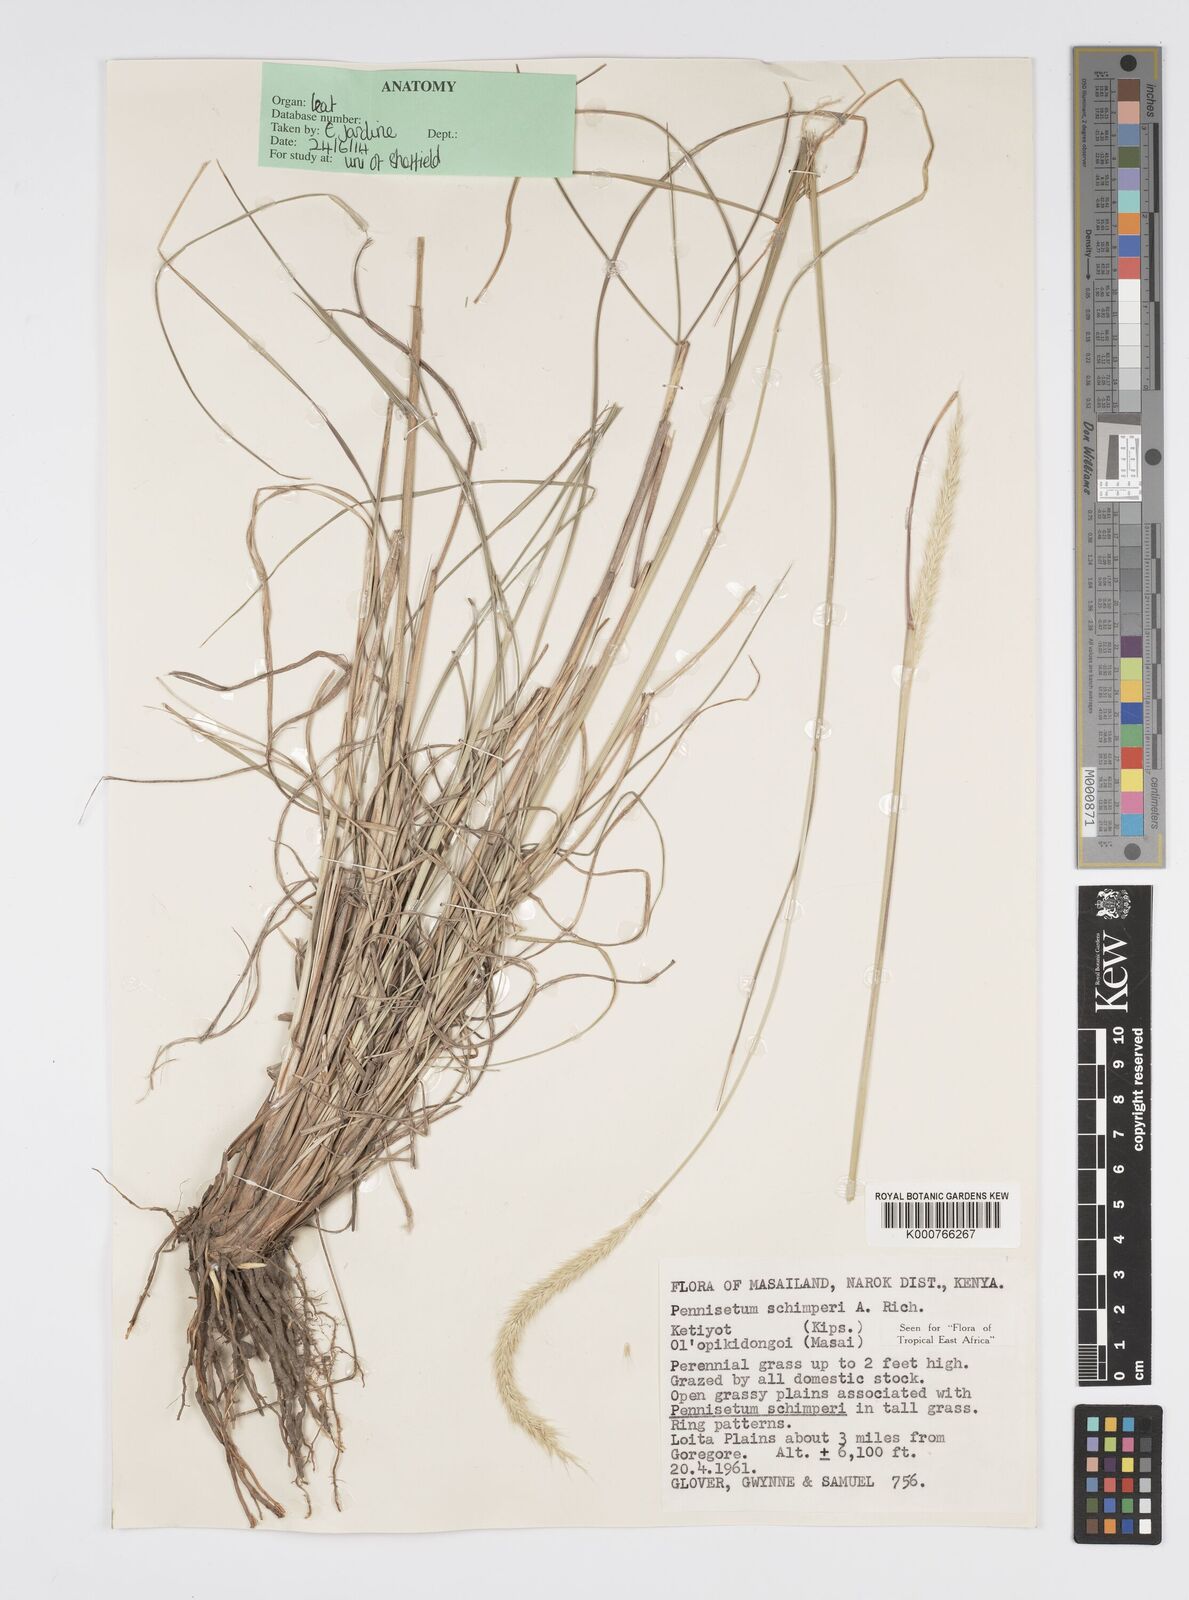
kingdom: Plantae
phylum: Tracheophyta
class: Liliopsida
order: Poales
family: Poaceae
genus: Cenchrus
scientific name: Cenchrus sphacelatus
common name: Bulgras
